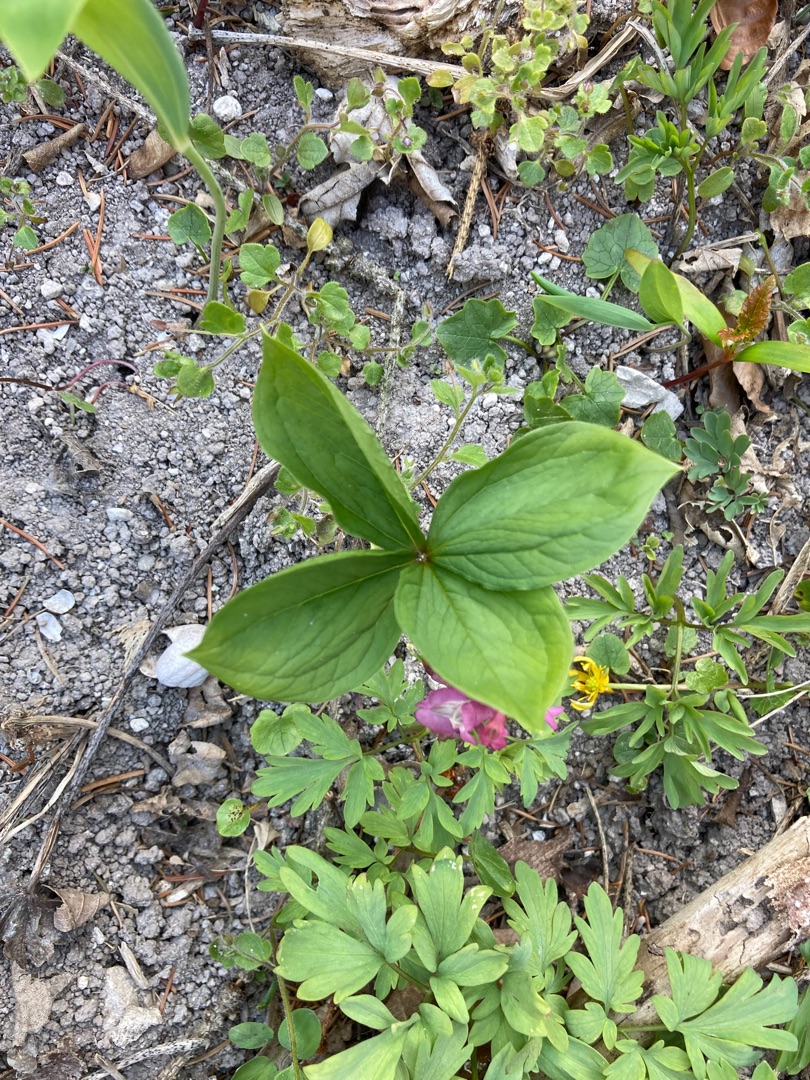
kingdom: Plantae
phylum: Tracheophyta
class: Liliopsida
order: Liliales
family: Melanthiaceae
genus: Paris
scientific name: Paris quadrifolia
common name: Firblad
